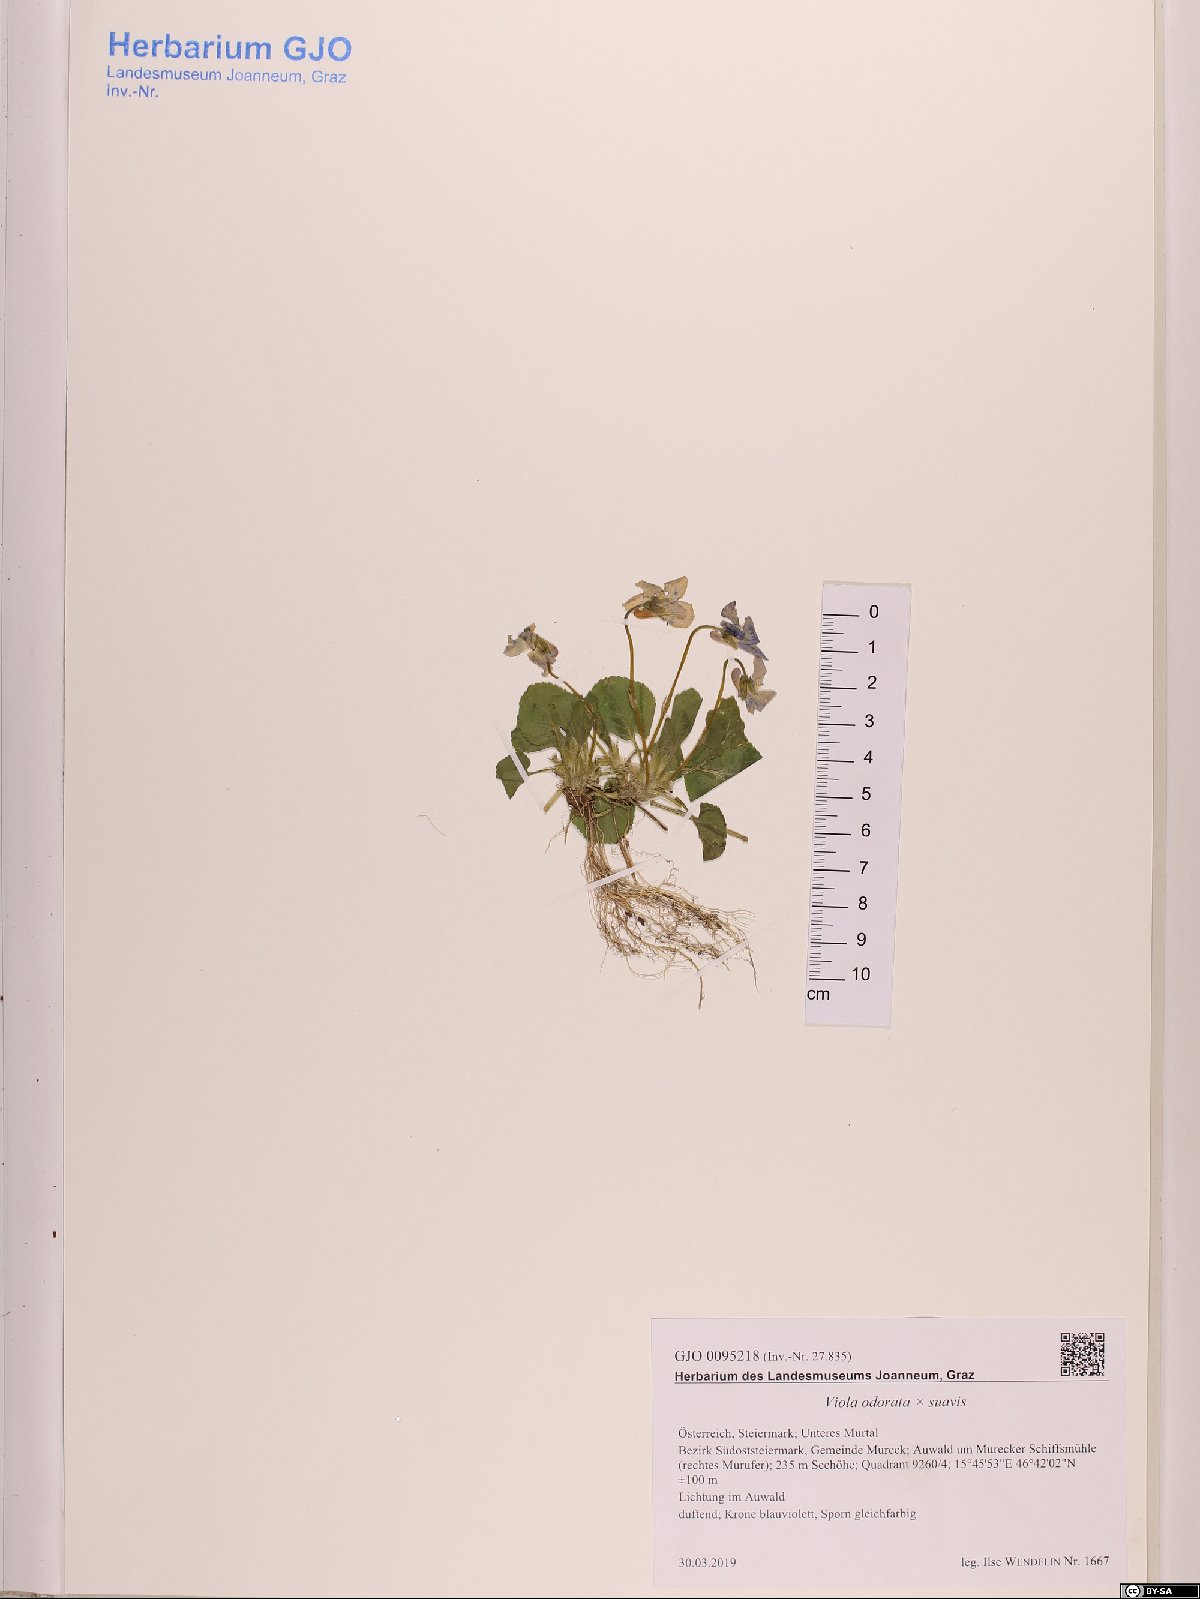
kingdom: Plantae
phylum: Tracheophyta
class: Magnoliopsida
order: Malpighiales
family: Violaceae
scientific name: Violaceae
